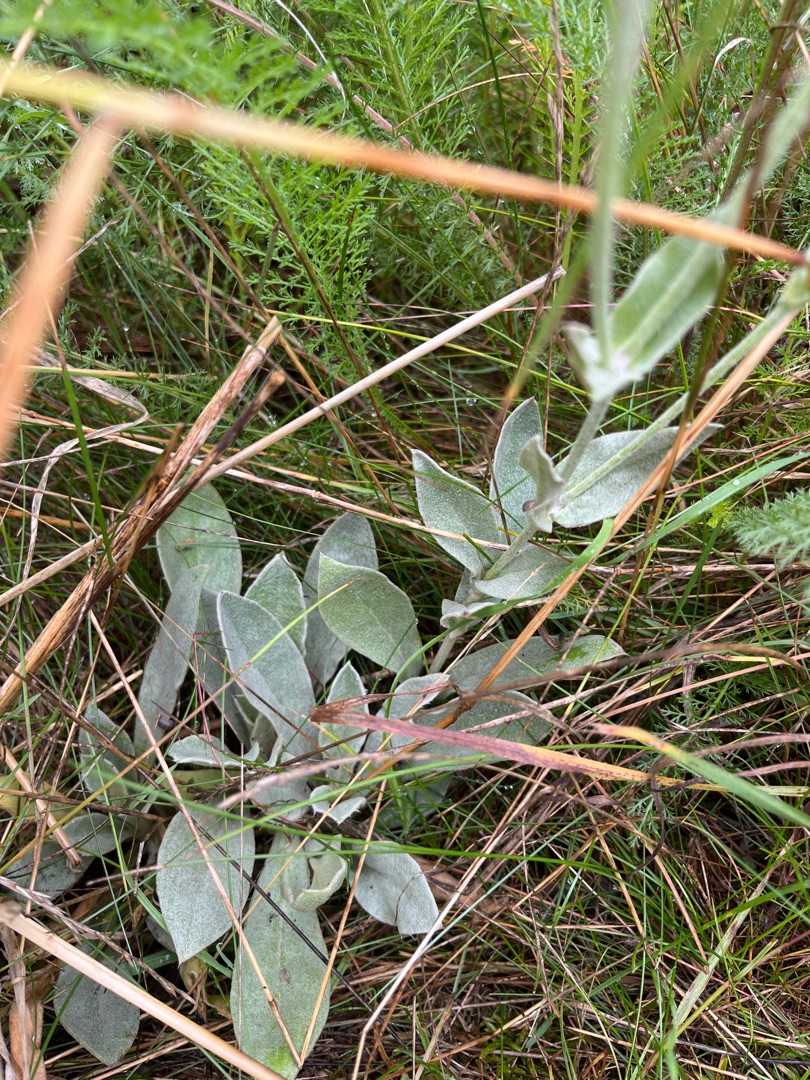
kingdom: Plantae
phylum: Tracheophyta
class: Magnoliopsida
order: Caryophyllales
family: Caryophyllaceae
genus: Silene
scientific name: Silene coronaria
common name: Fiksernellike
